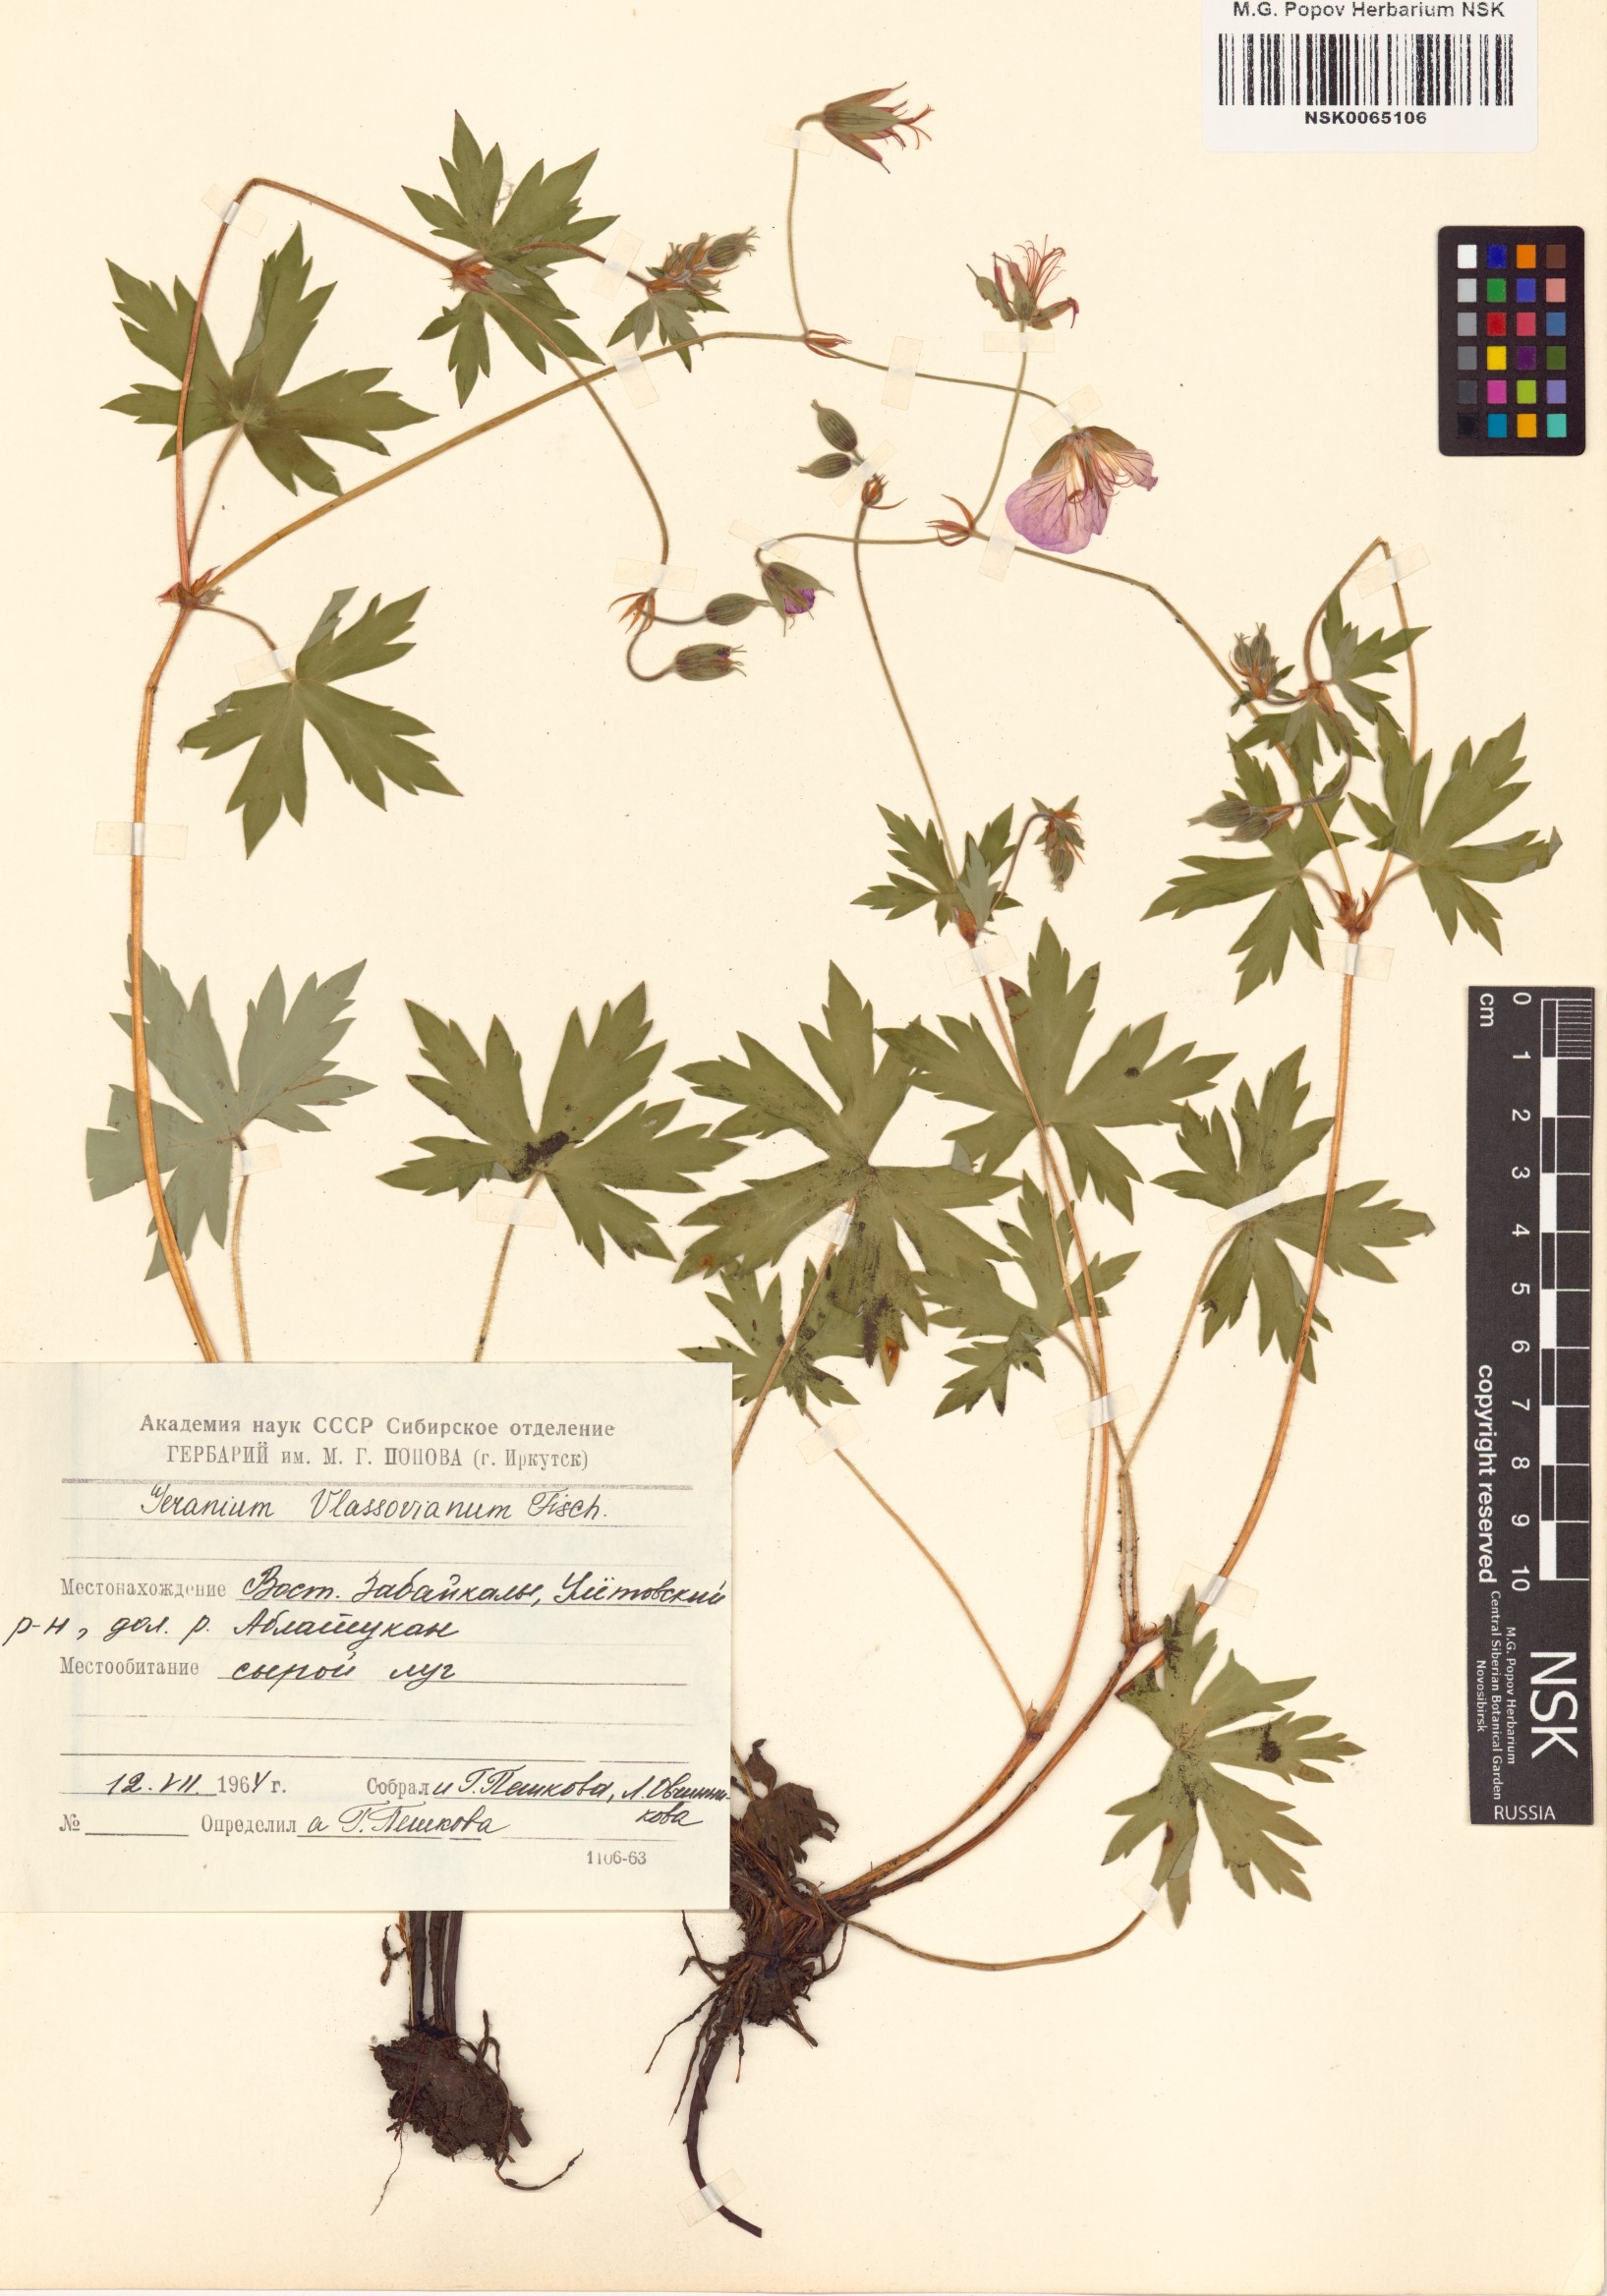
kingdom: Plantae
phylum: Tracheophyta
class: Magnoliopsida
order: Geraniales
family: Geraniaceae
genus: Geranium
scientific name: Geranium wlassovianum
